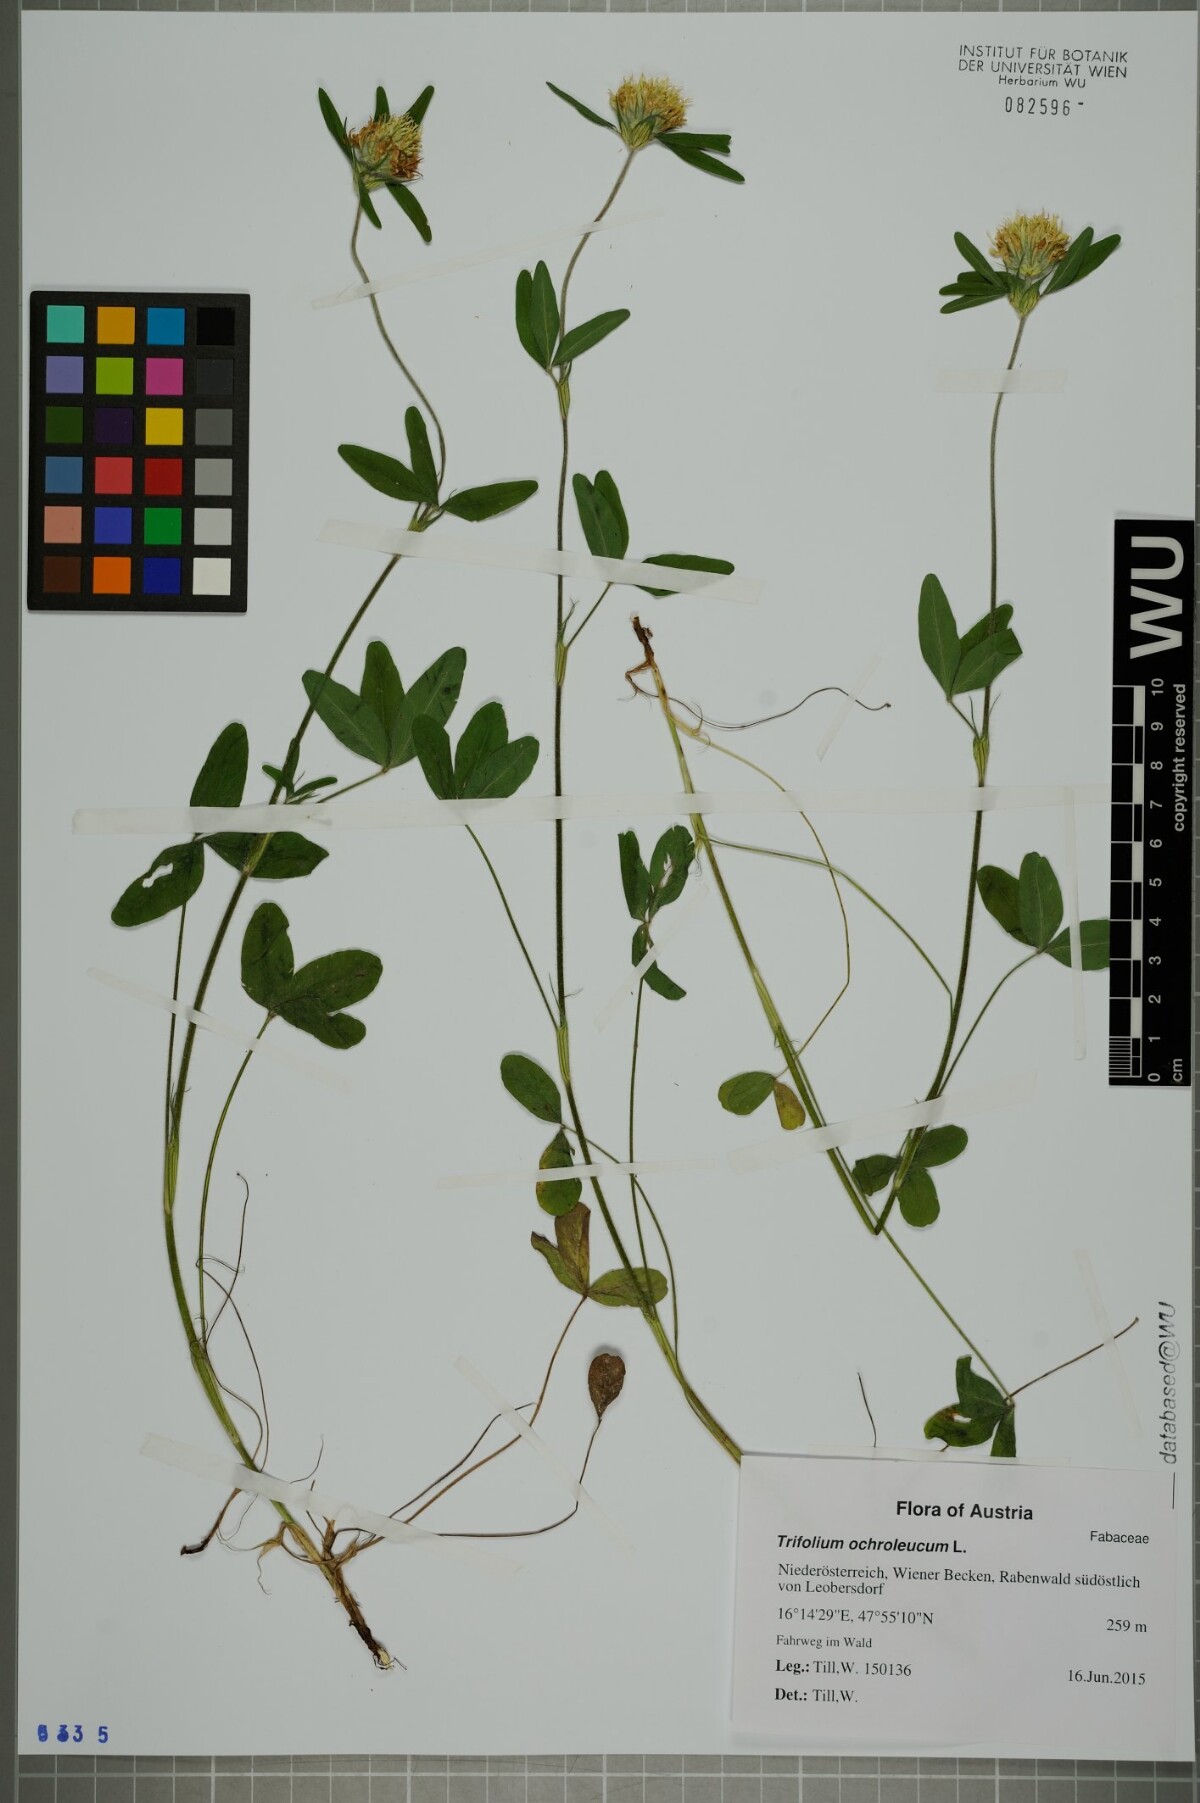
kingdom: Plantae
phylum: Tracheophyta
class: Magnoliopsida
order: Fabales
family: Fabaceae
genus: Trifolium
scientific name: Trifolium ochroleucon
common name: Sulphur clover
